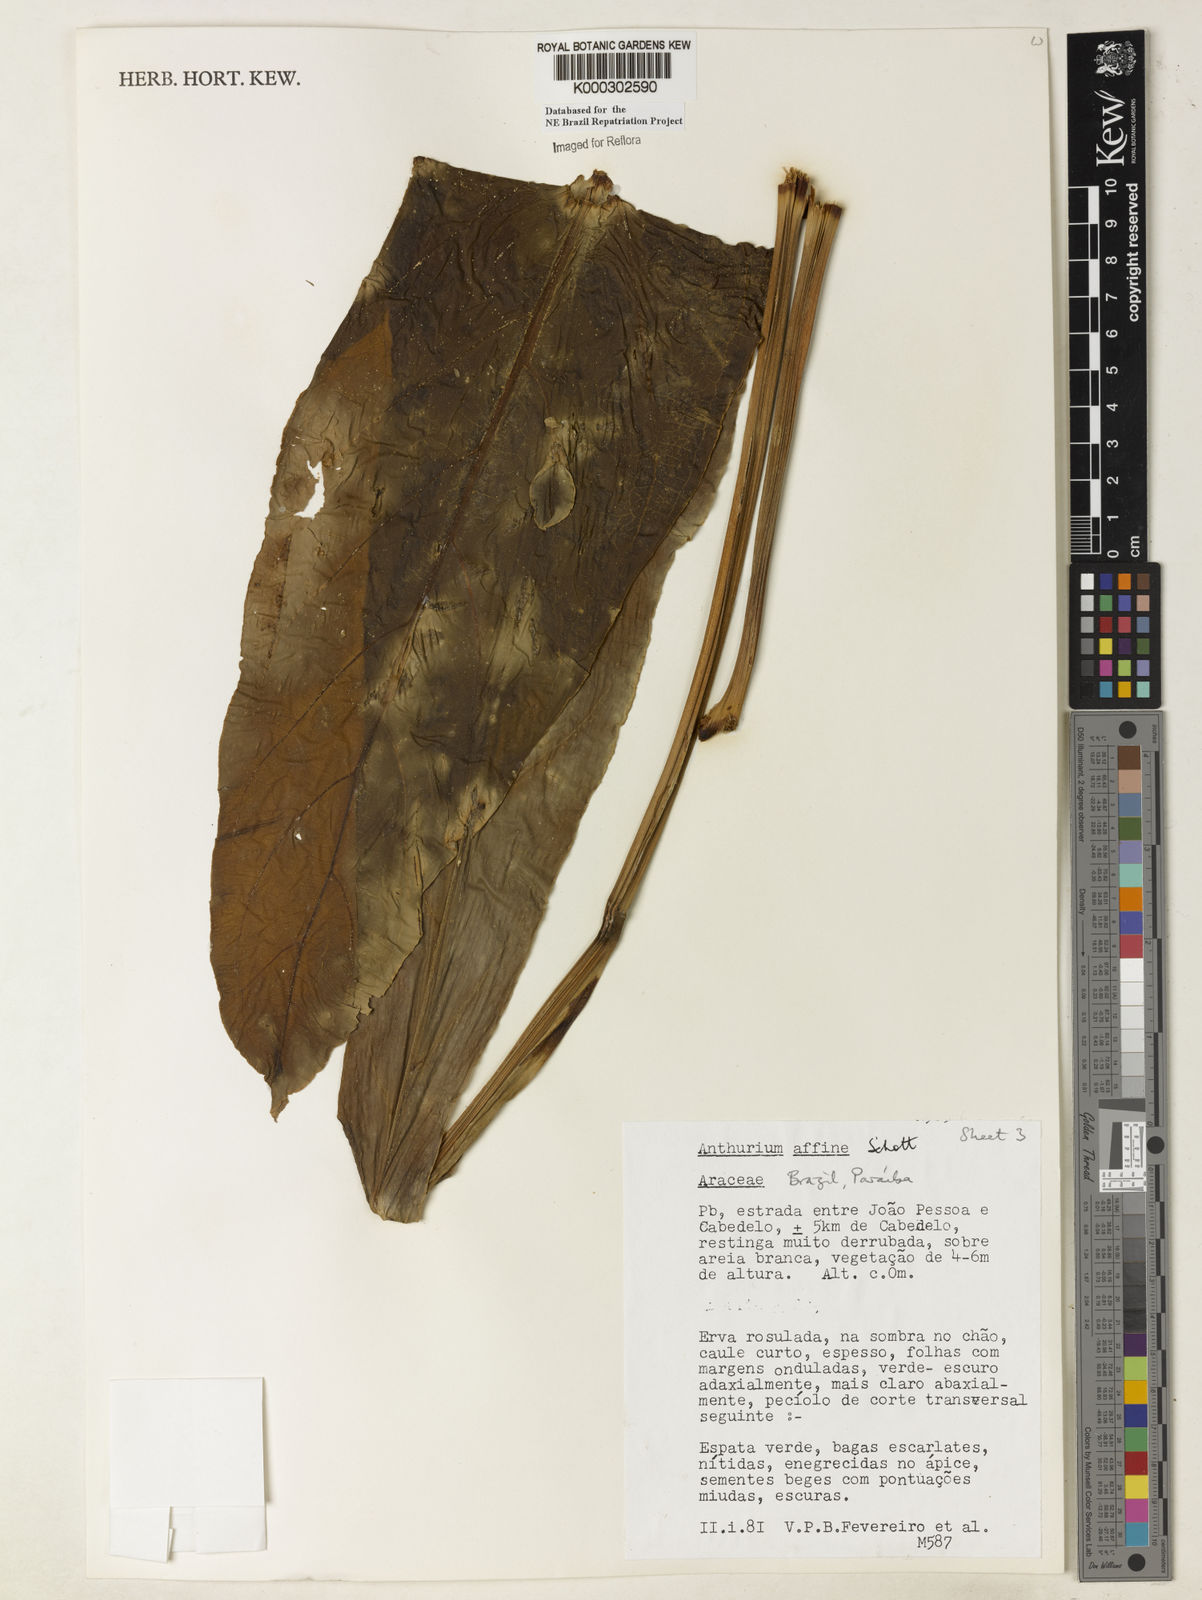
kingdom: Plantae
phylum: Tracheophyta
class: Liliopsida
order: Alismatales
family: Araceae
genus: Anthurium
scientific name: Anthurium affine
